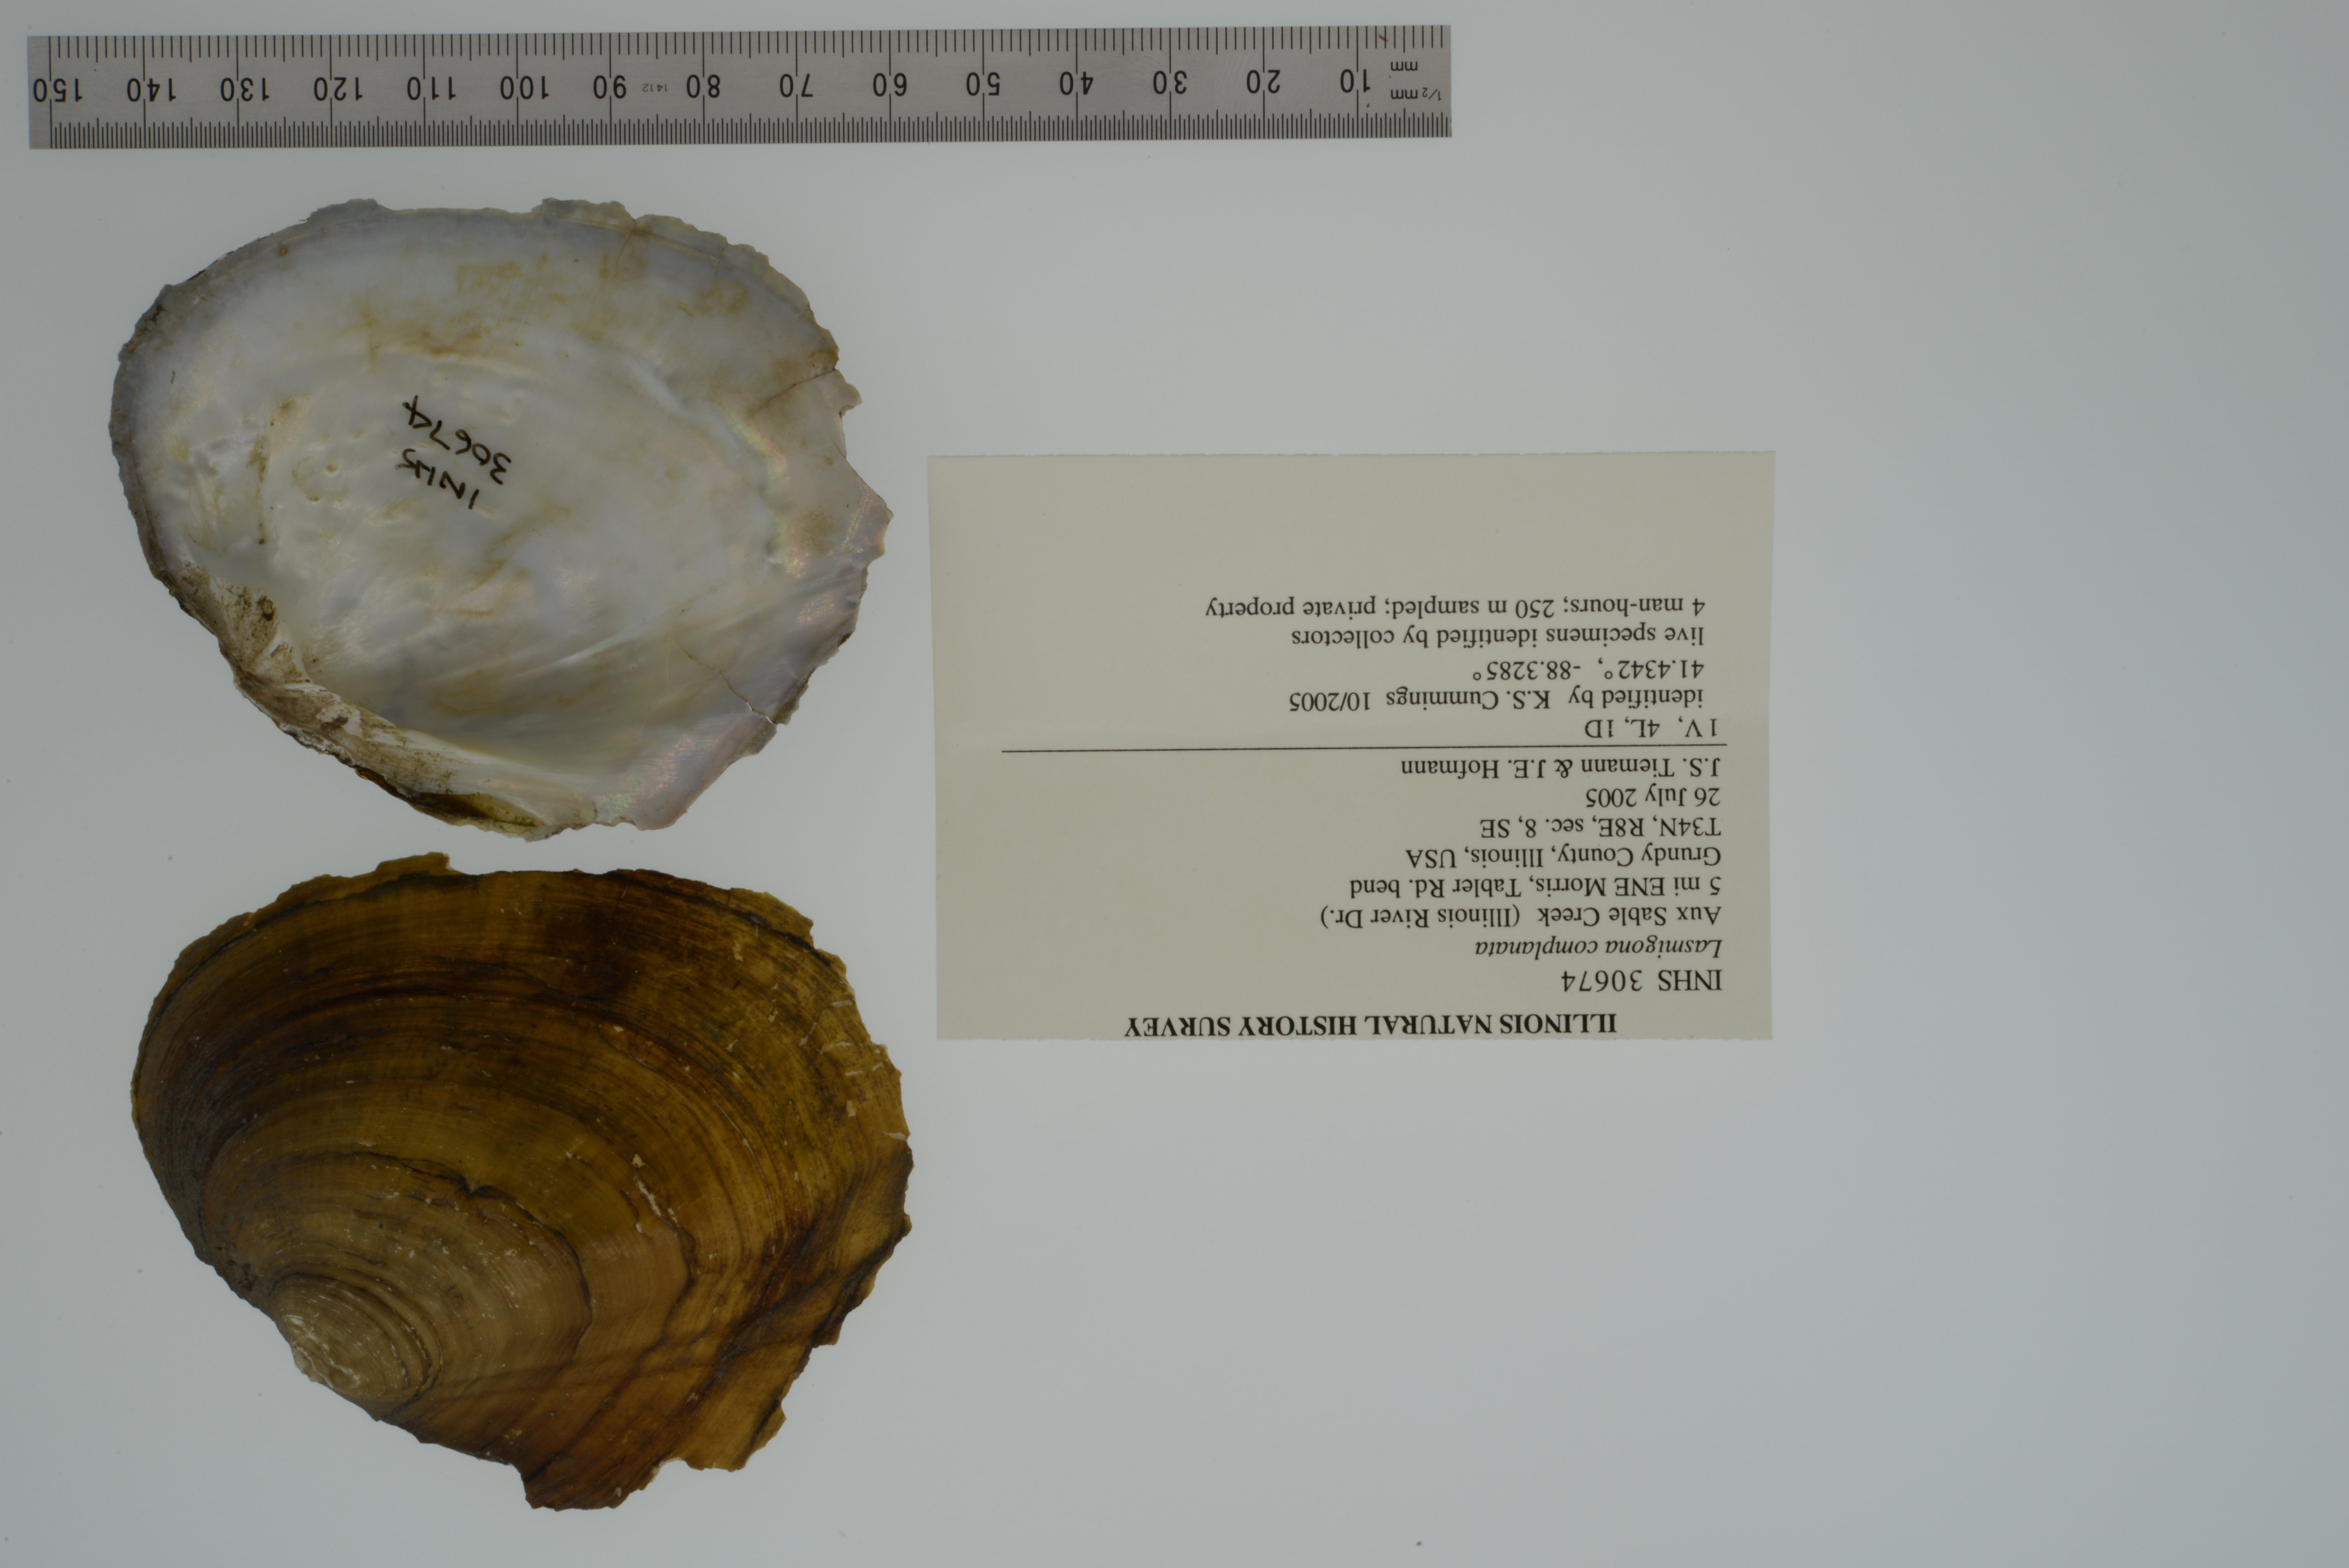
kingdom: Animalia
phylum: Mollusca
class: Bivalvia
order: Unionida
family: Unionidae
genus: Lasmigona
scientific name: Lasmigona complanata
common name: White heelsplitter
